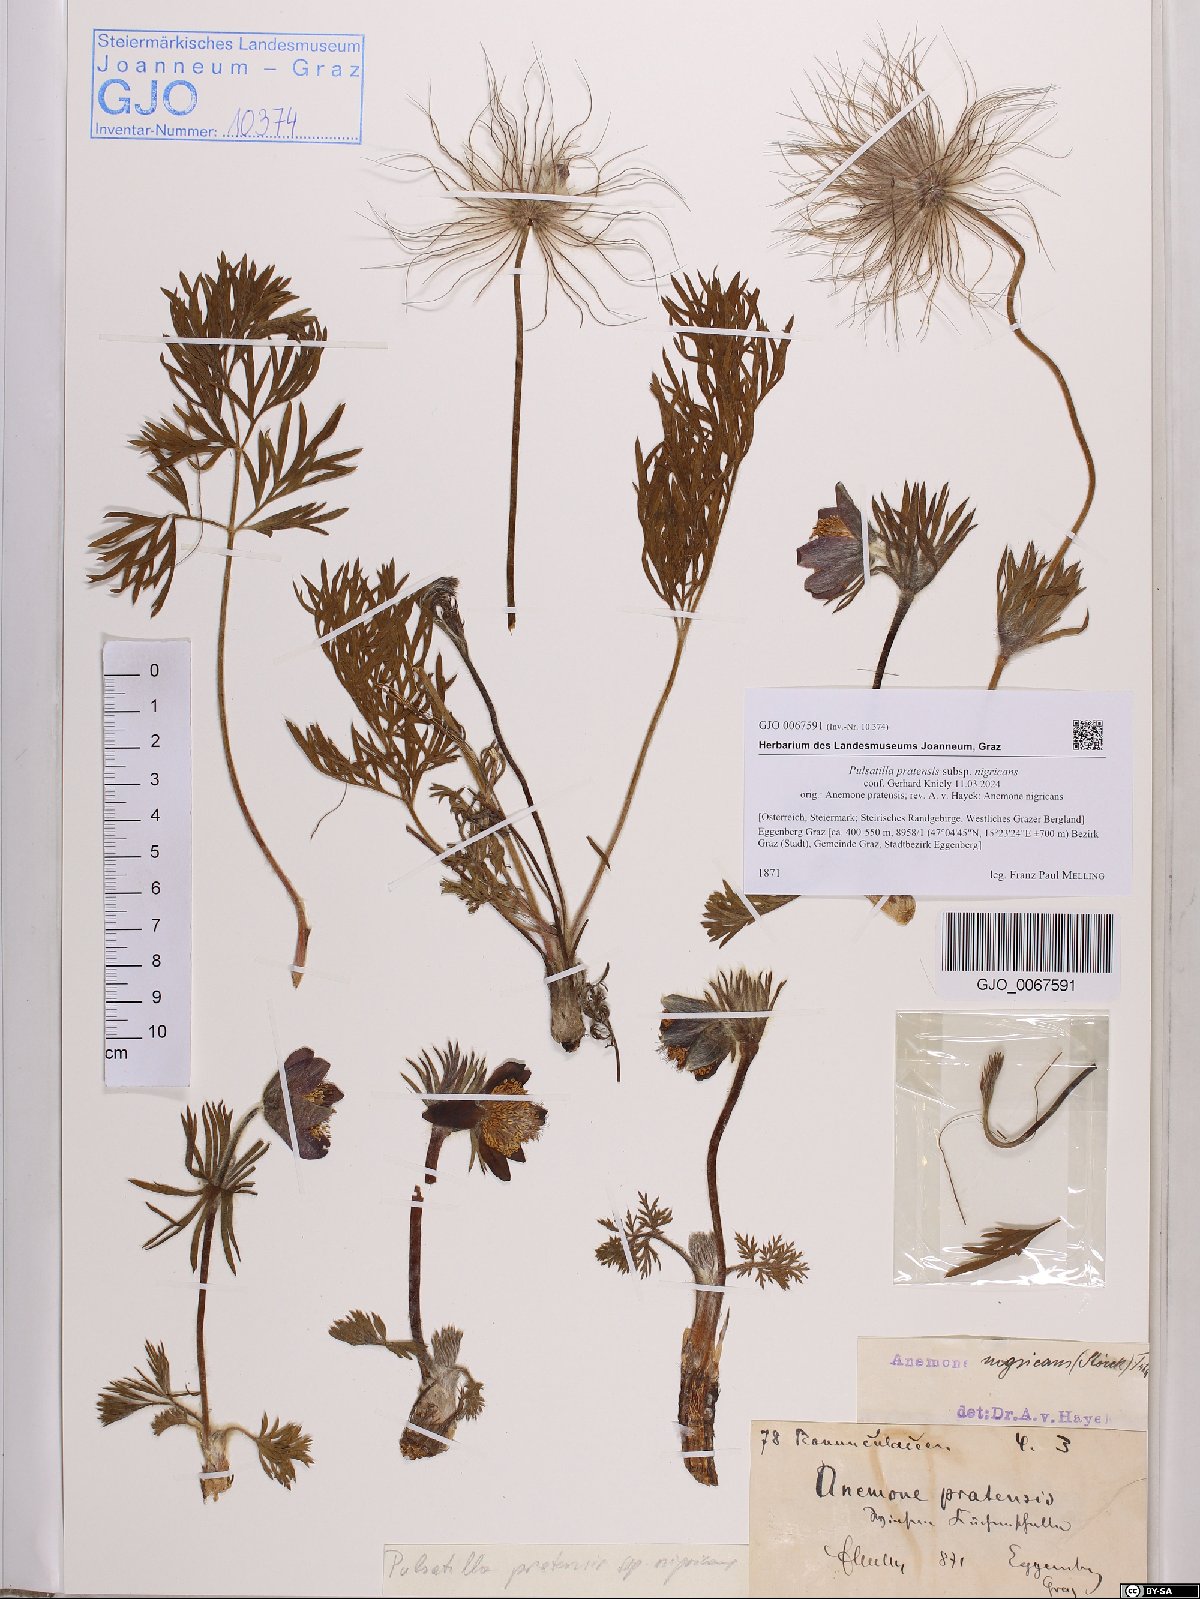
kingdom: Plantae
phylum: Tracheophyta
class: Magnoliopsida
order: Ranunculales
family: Ranunculaceae
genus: Pulsatilla
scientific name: Pulsatilla pratensis
